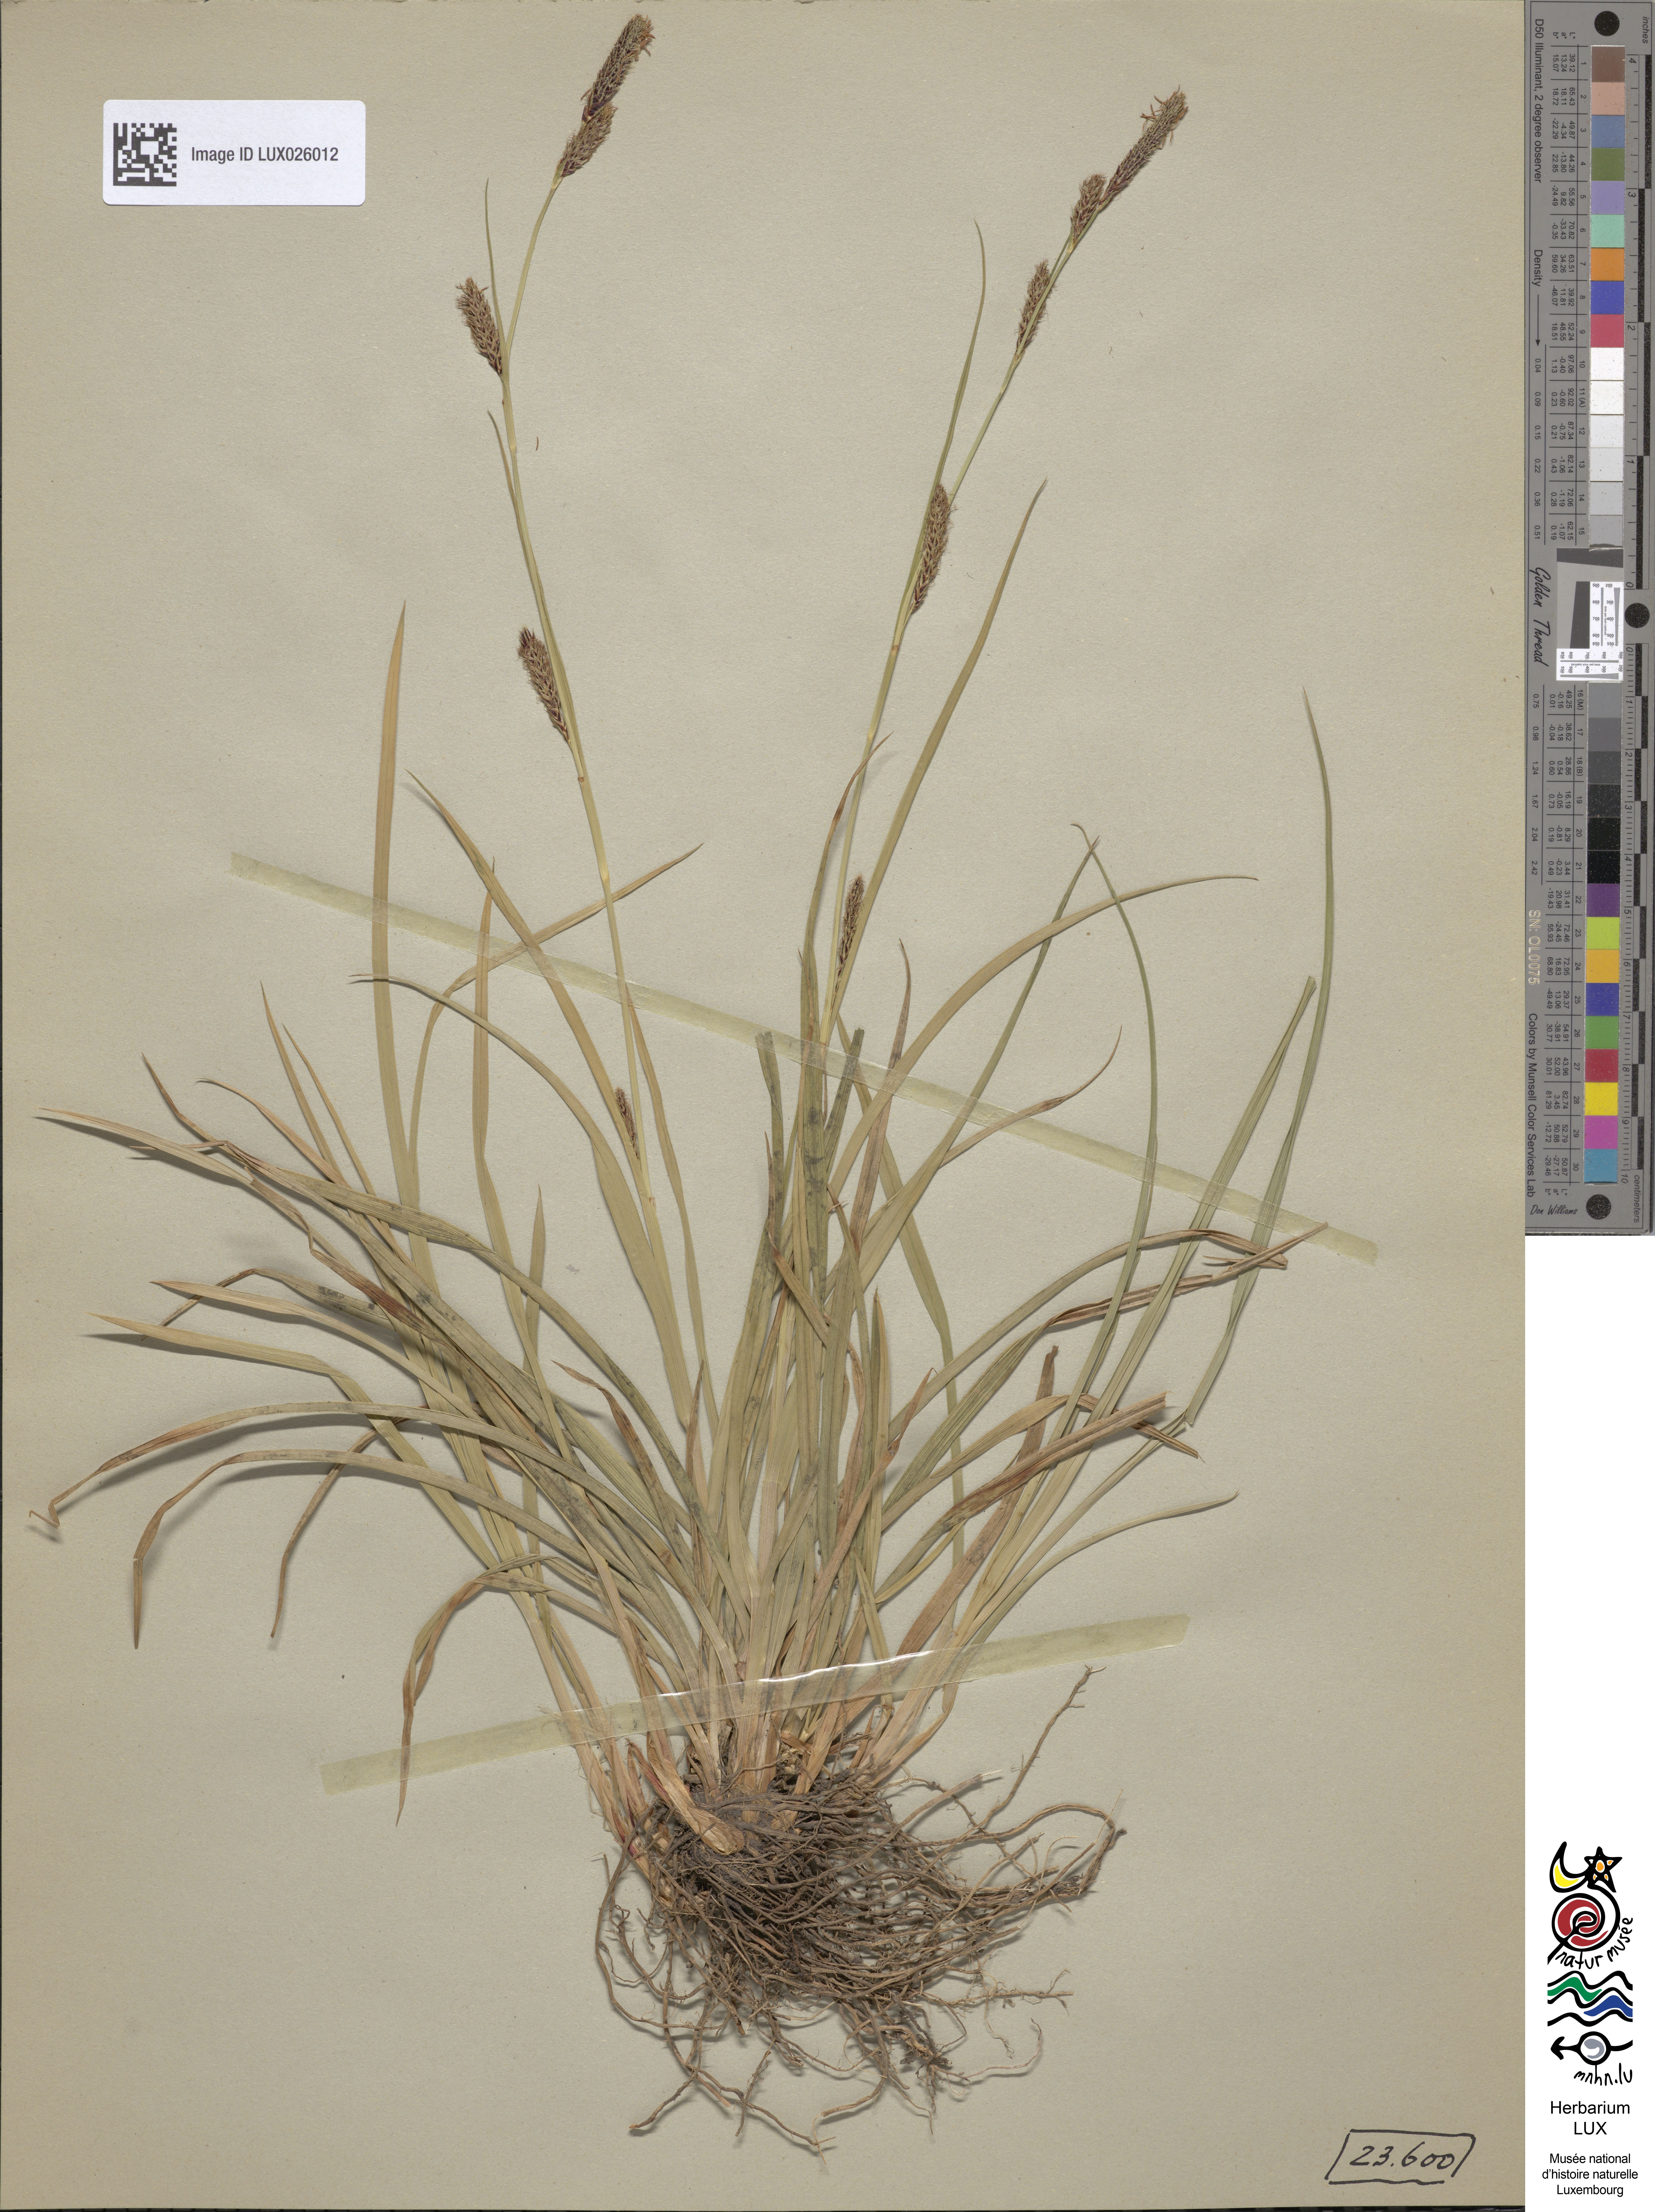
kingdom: Plantae
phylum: Tracheophyta
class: Liliopsida
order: Poales
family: Cyperaceae
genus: Carex
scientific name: Carex binervis
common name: Green-ribbed sedge
